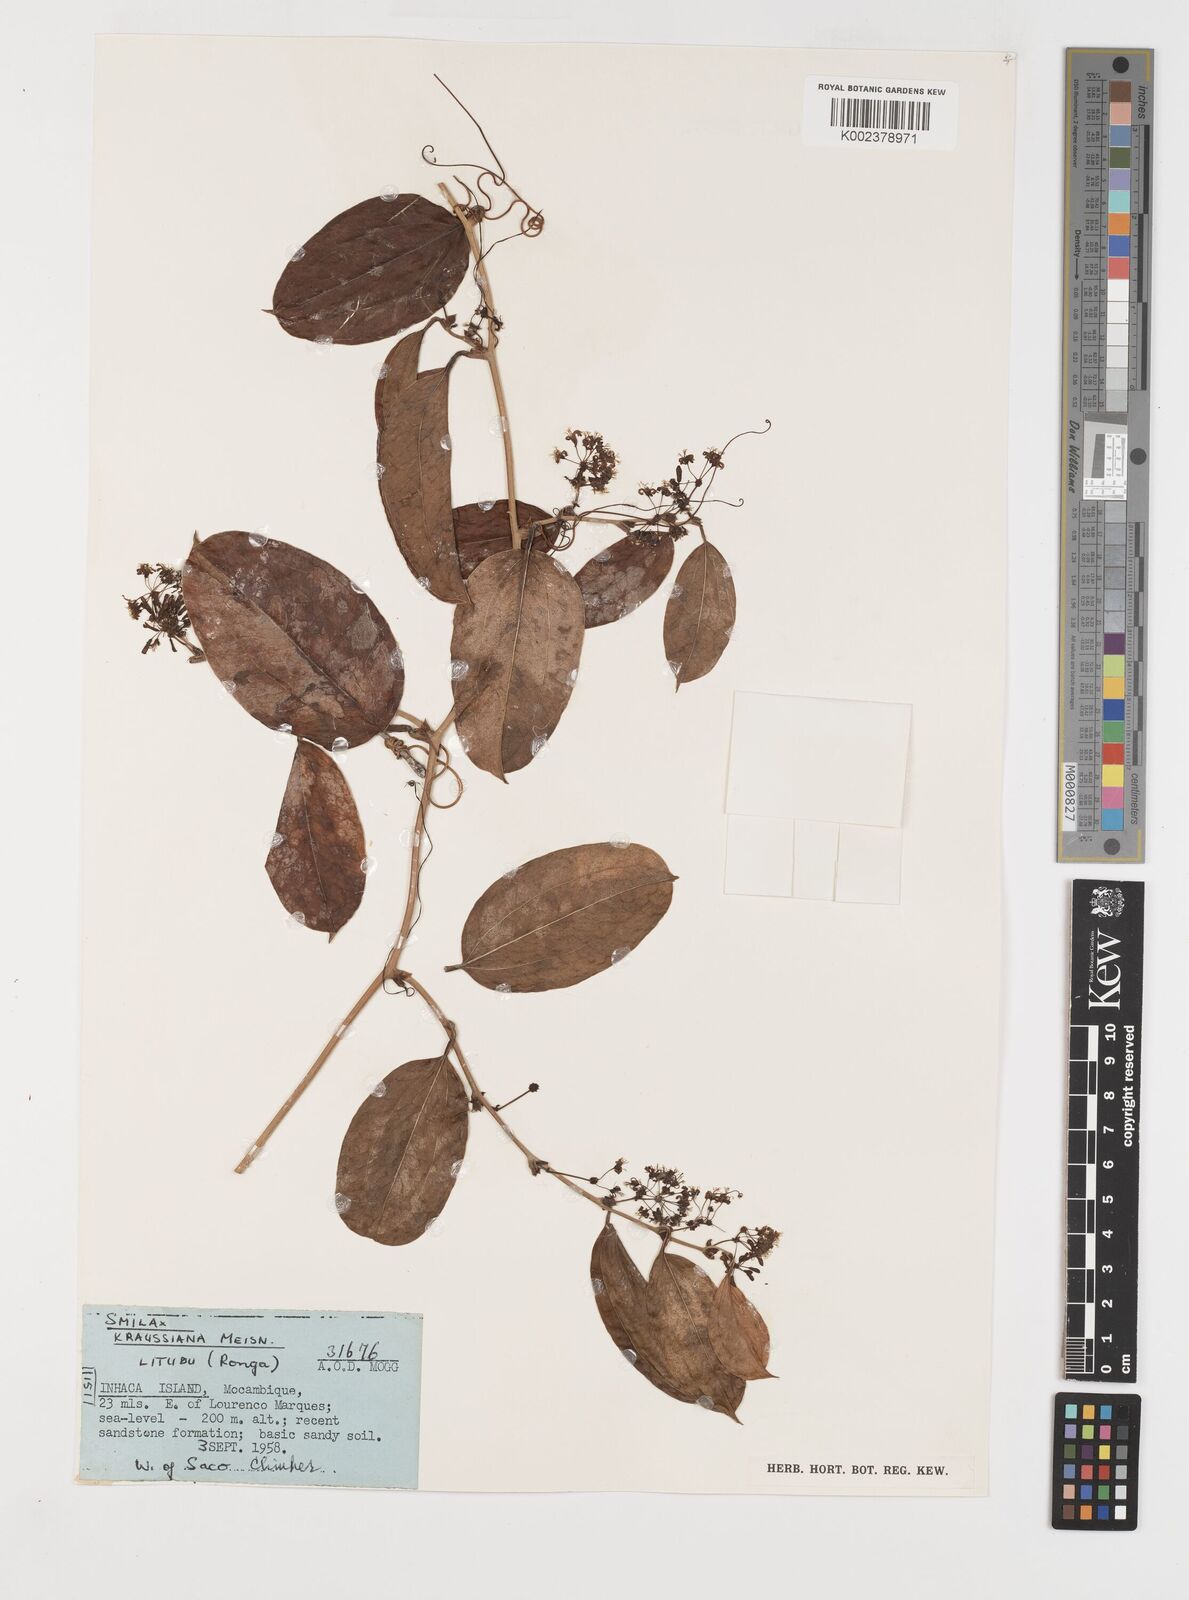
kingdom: Plantae
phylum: Tracheophyta
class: Liliopsida
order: Liliales
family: Smilacaceae
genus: Smilax
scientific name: Smilax anceps
